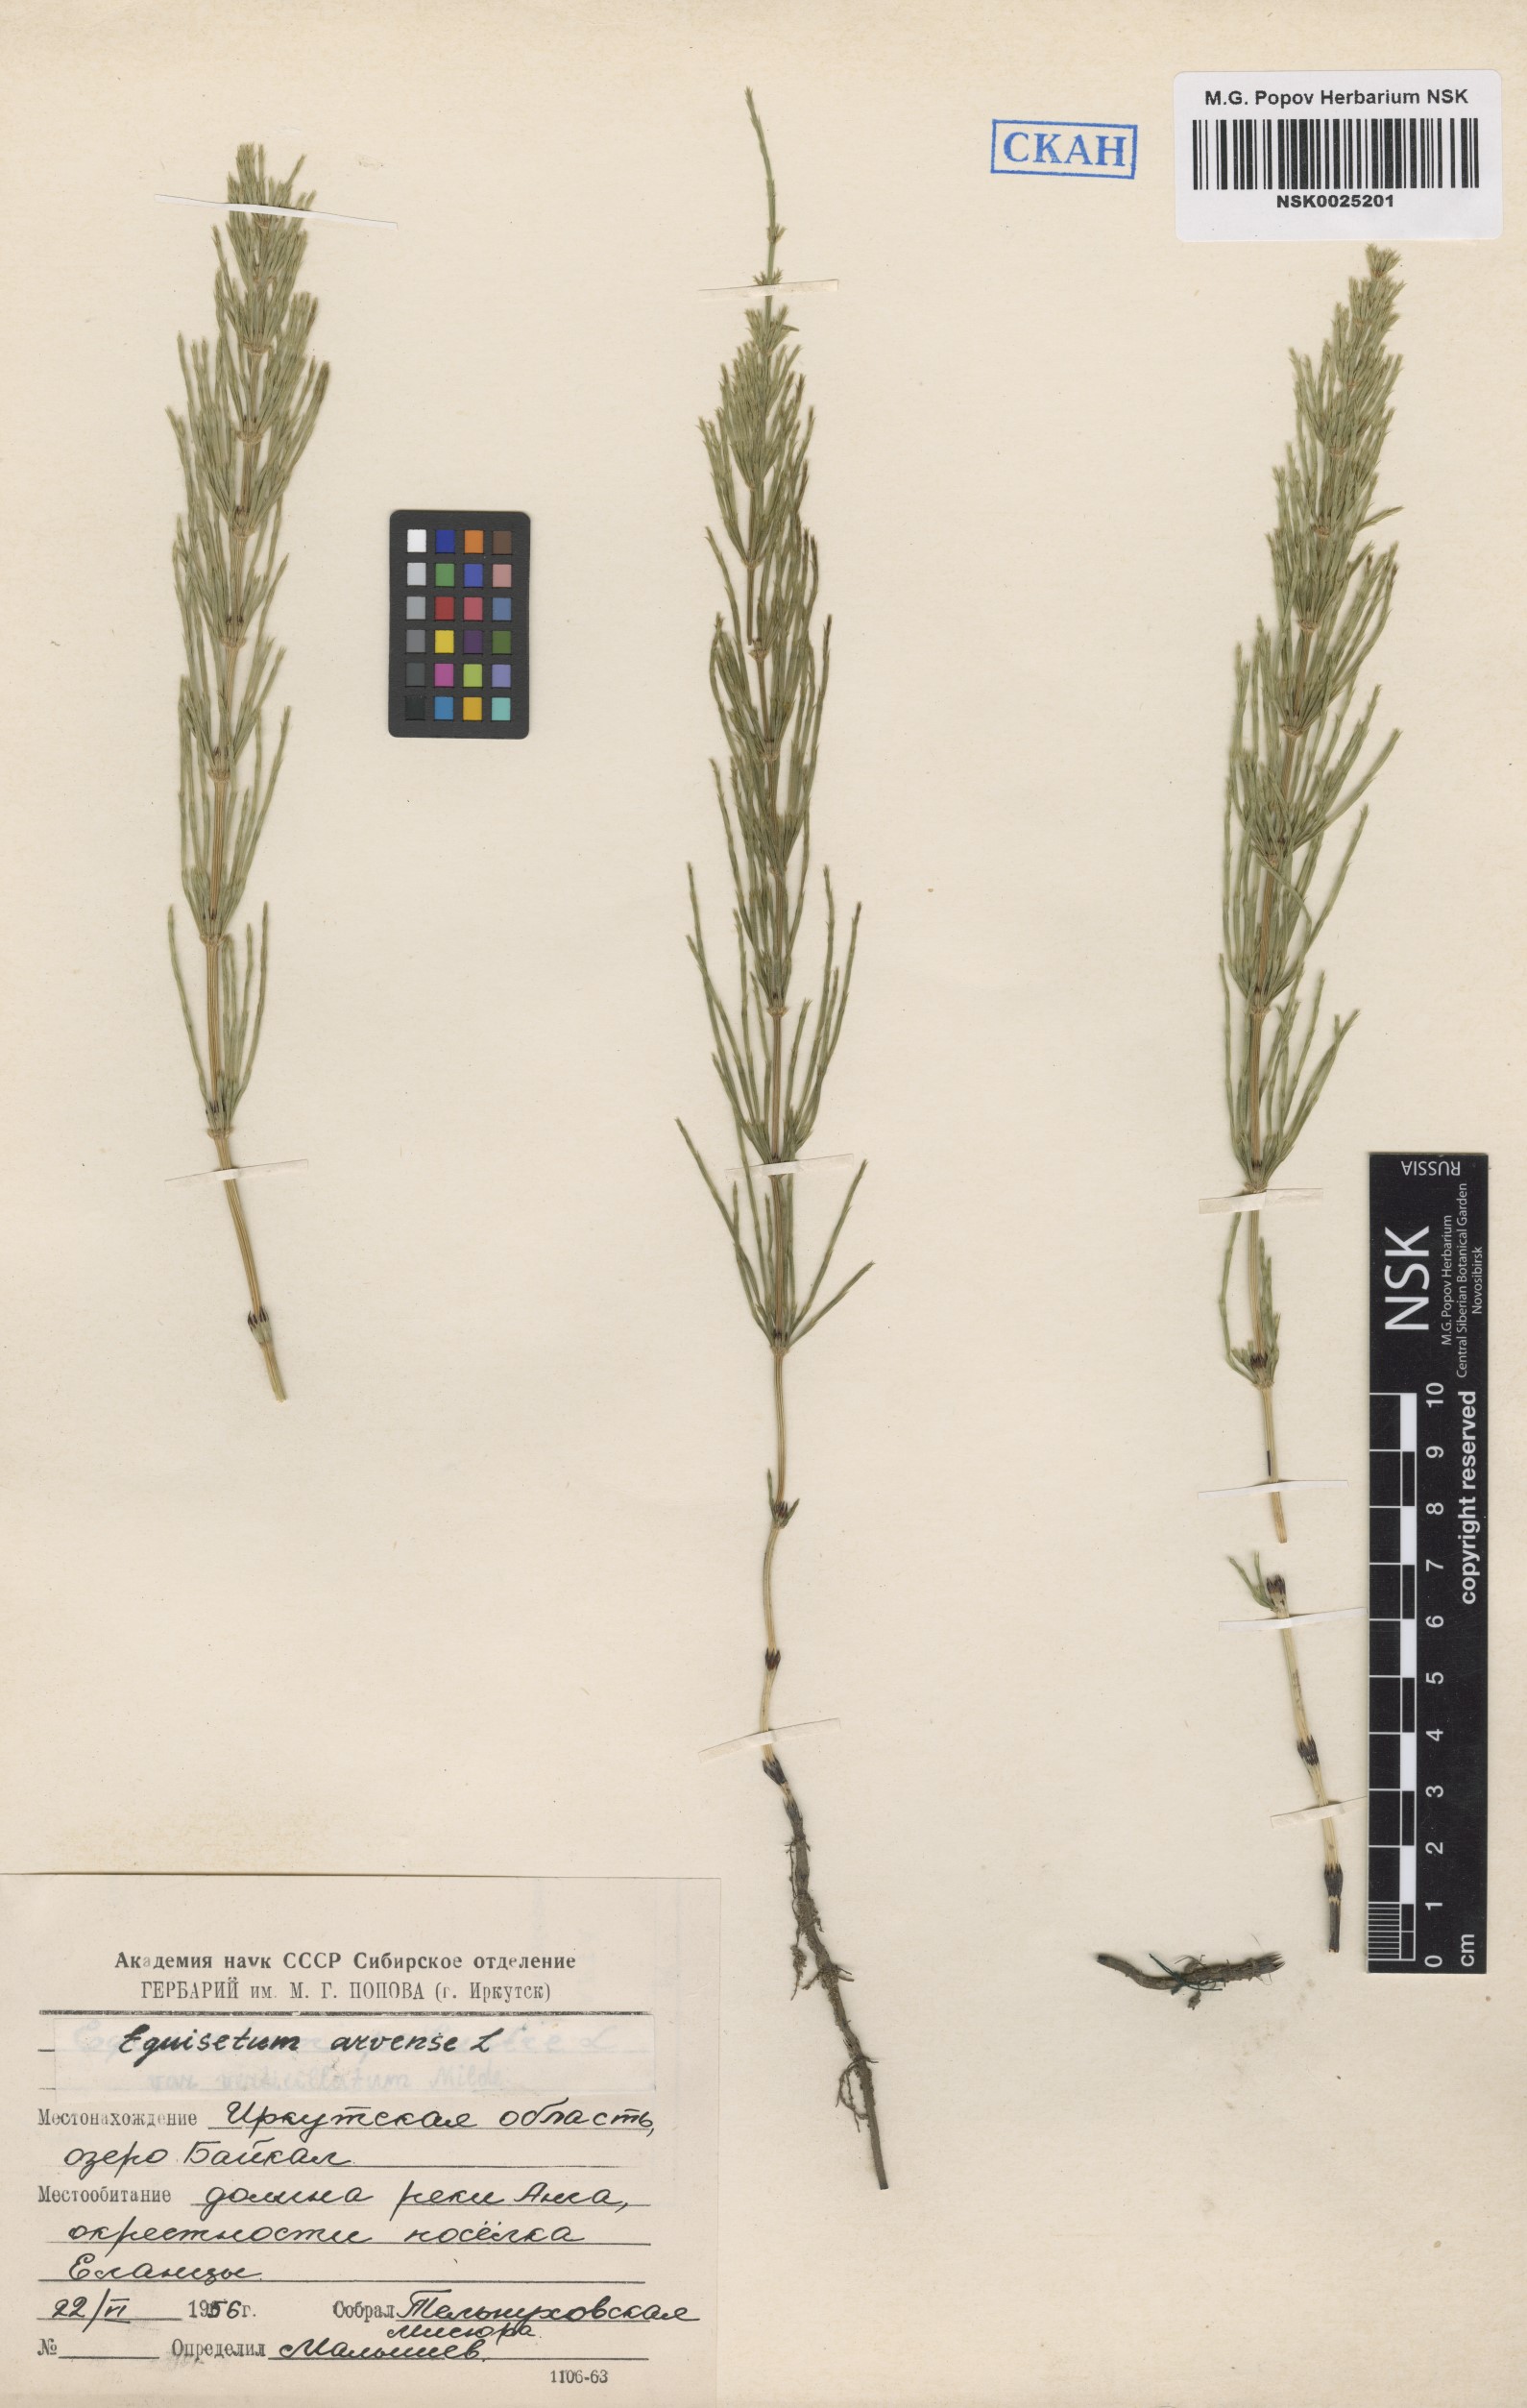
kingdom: Plantae
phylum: Tracheophyta
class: Polypodiopsida
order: Equisetales
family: Equisetaceae
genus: Equisetum
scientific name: Equisetum arvense
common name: Field horsetail
